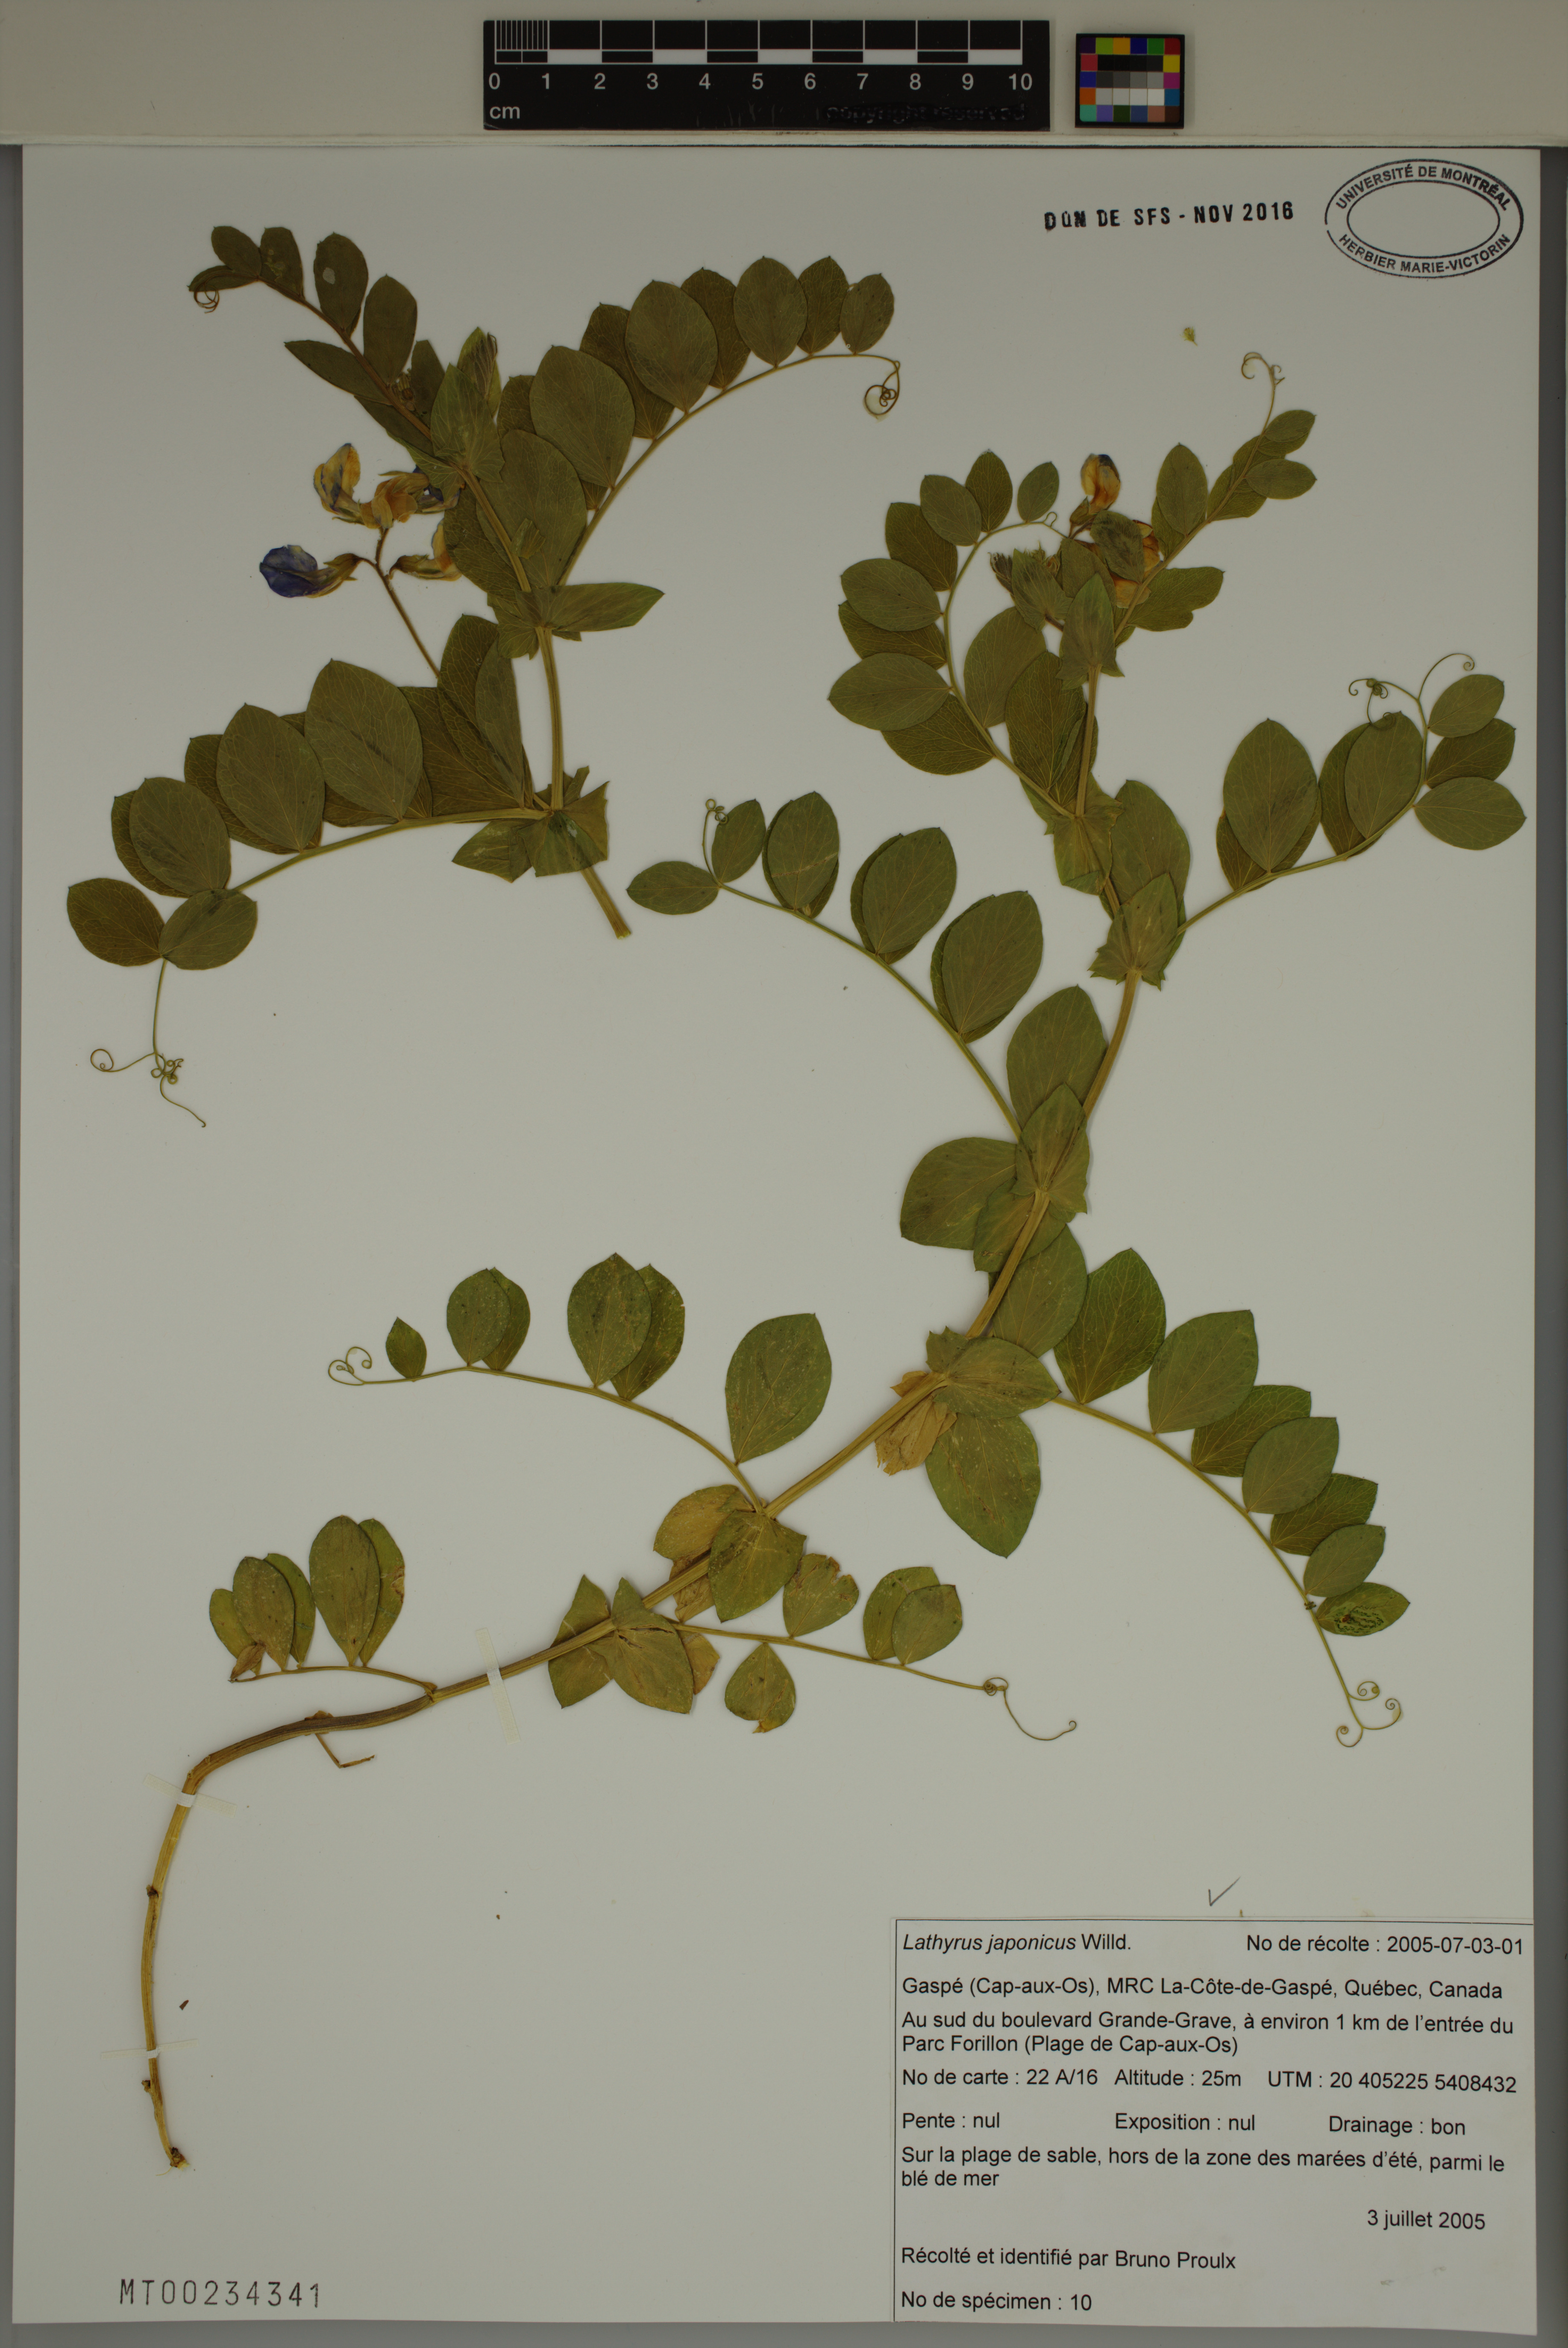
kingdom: Plantae
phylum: Tracheophyta
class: Magnoliopsida
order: Fabales
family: Fabaceae
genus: Lathyrus
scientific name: Lathyrus japonicus
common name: Sea pea
